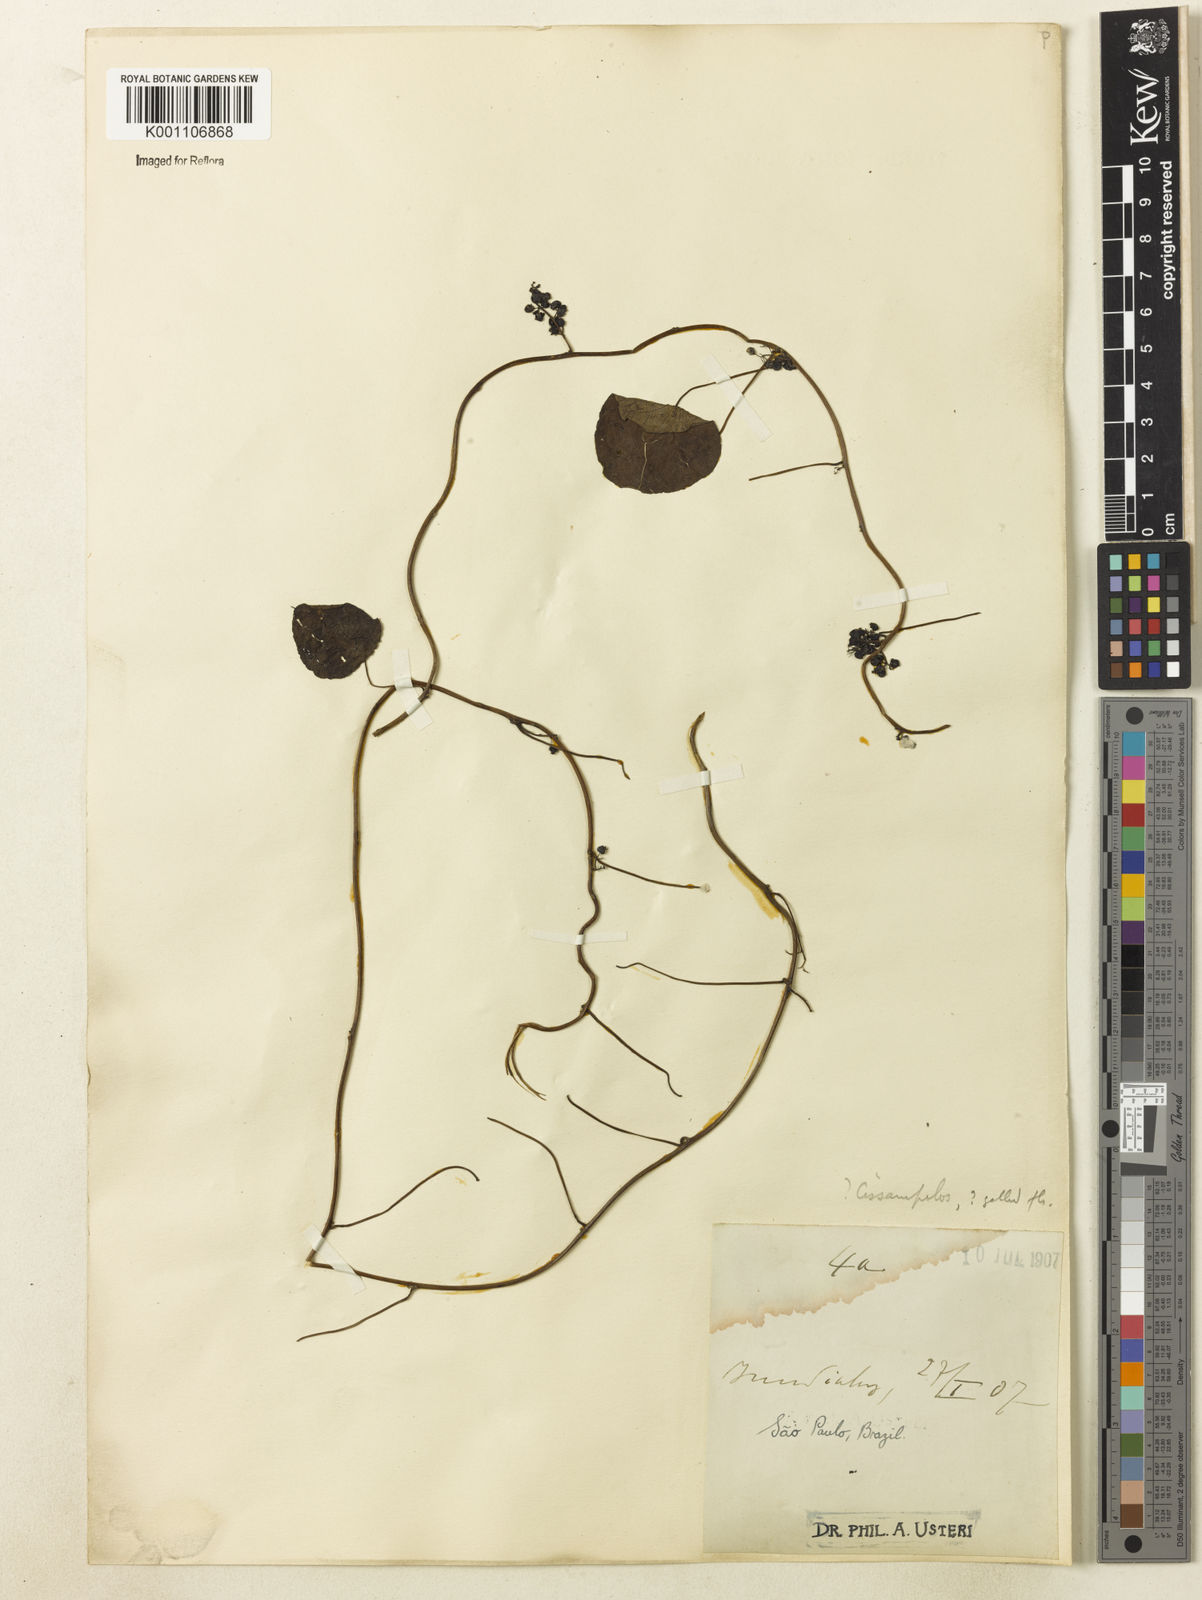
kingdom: Plantae
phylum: Tracheophyta
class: Magnoliopsida
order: Ranunculales
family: Menispermaceae
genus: Cissampelos
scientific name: Cissampelos glaberrima
